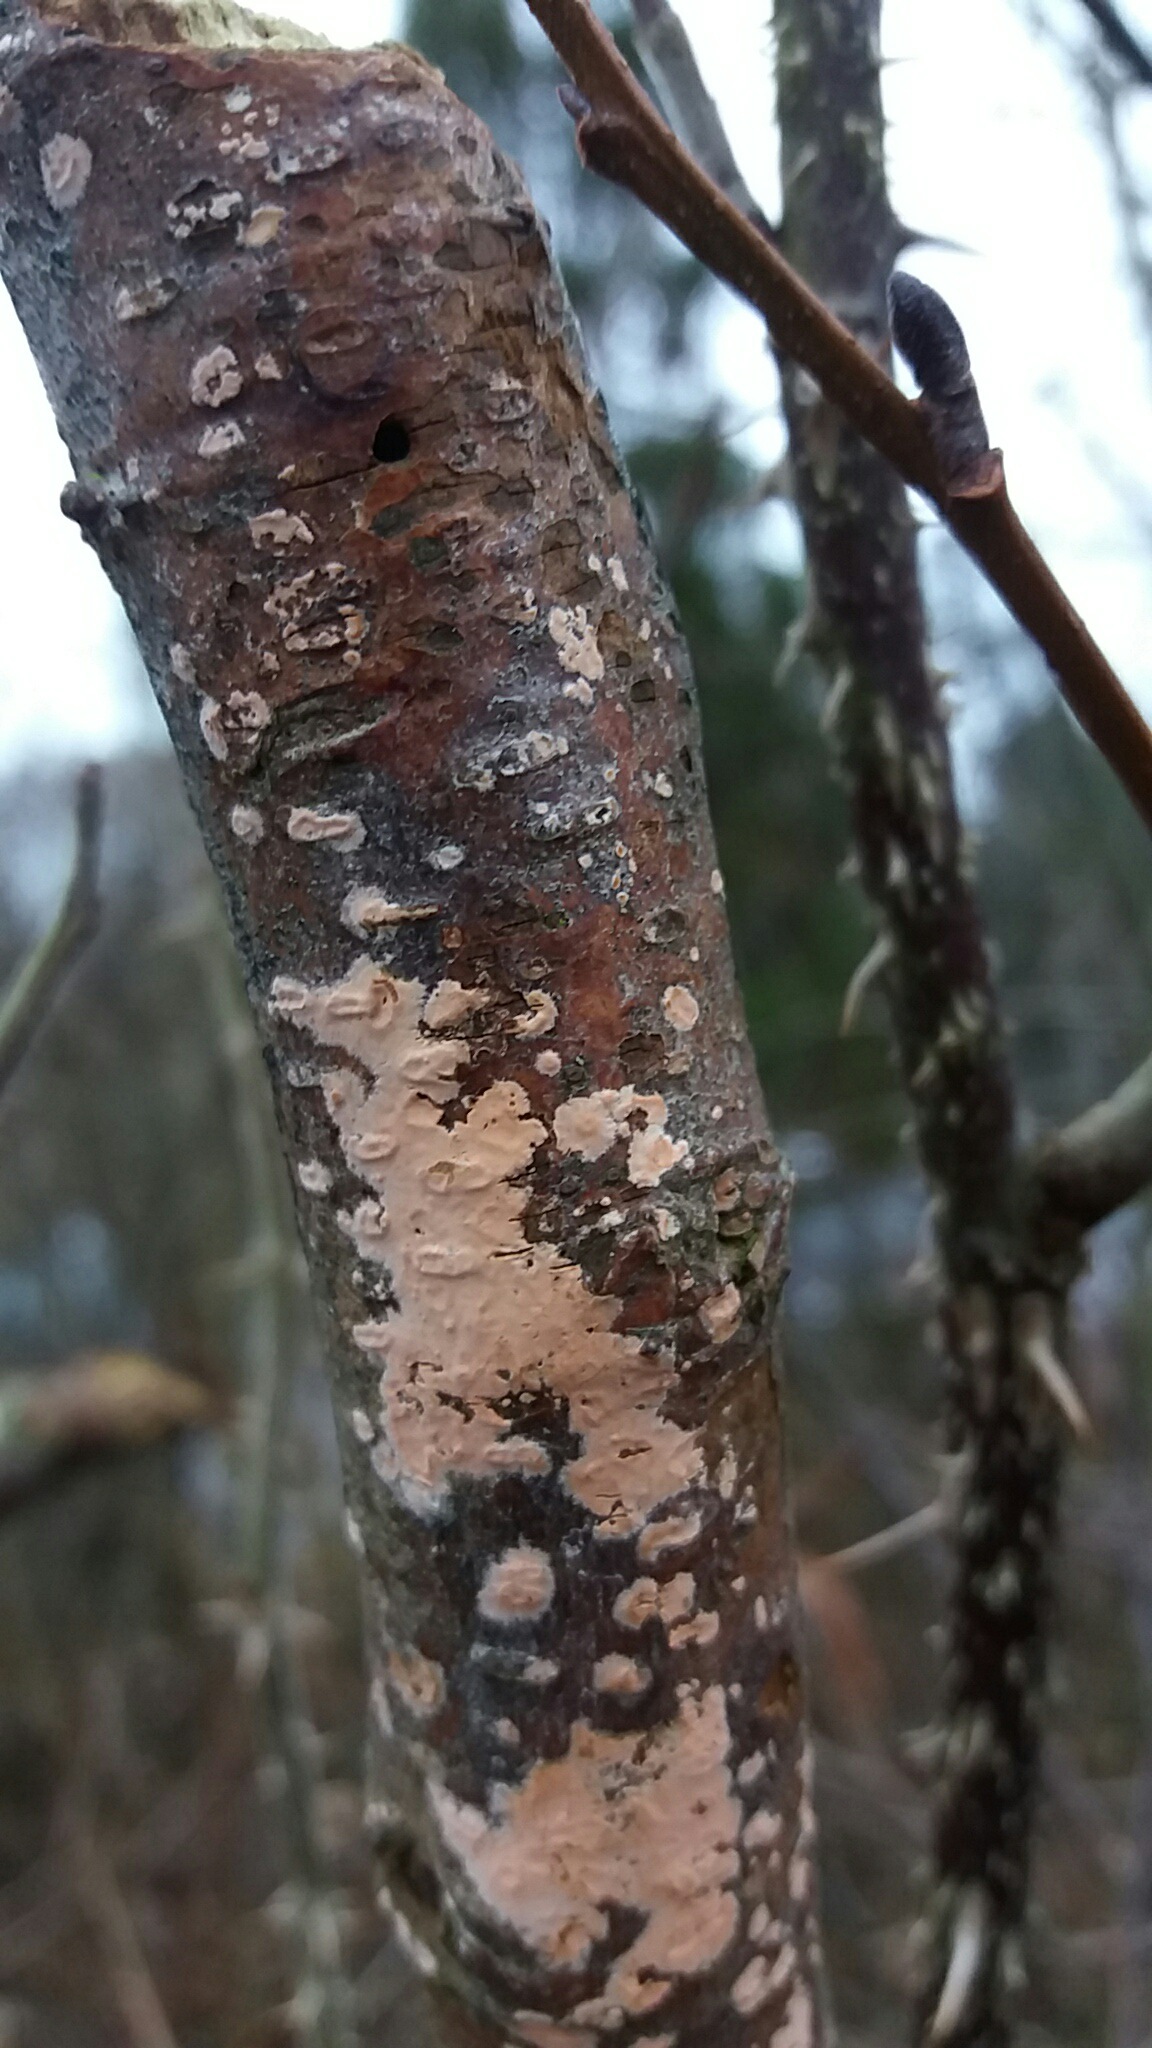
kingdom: Fungi
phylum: Basidiomycota
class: Agaricomycetes
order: Russulales
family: Peniophoraceae
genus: Peniophora
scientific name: Peniophora incarnata
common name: laksefarvet voksskind
